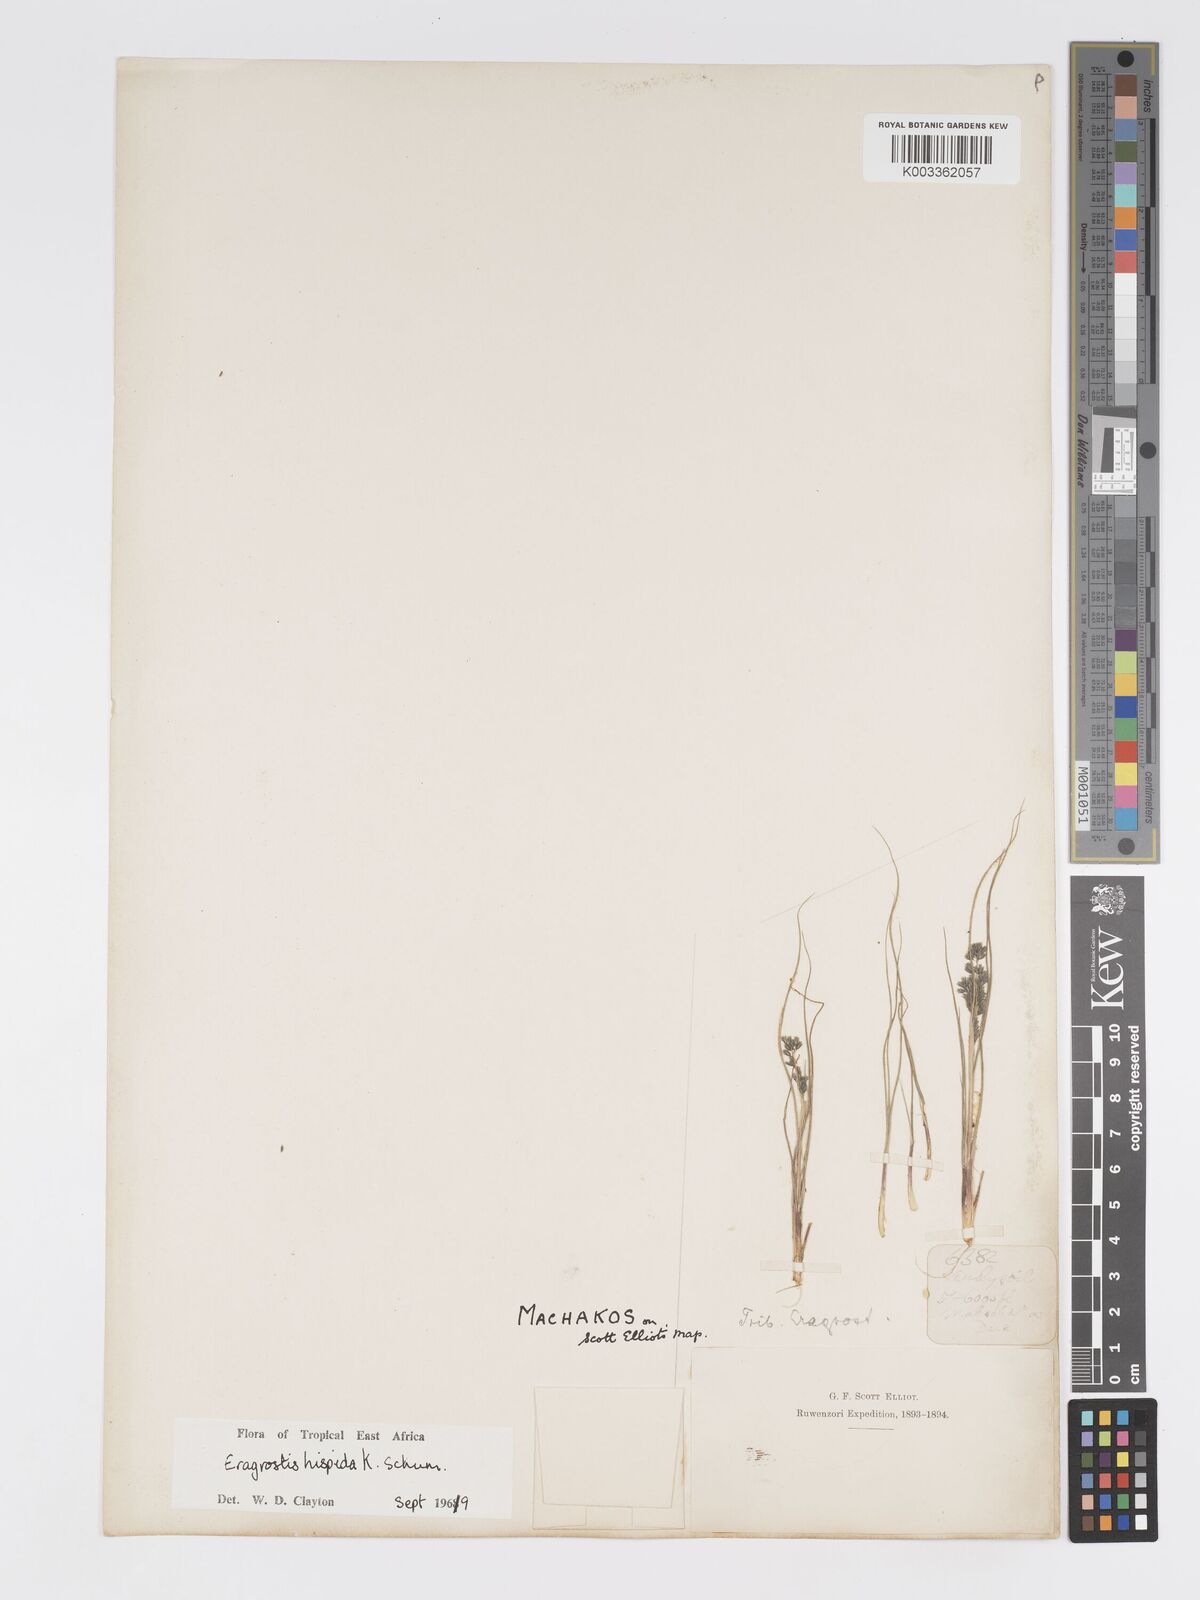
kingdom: Plantae
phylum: Tracheophyta
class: Liliopsida
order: Poales
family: Poaceae
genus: Eragrostis
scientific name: Eragrostis hispida
